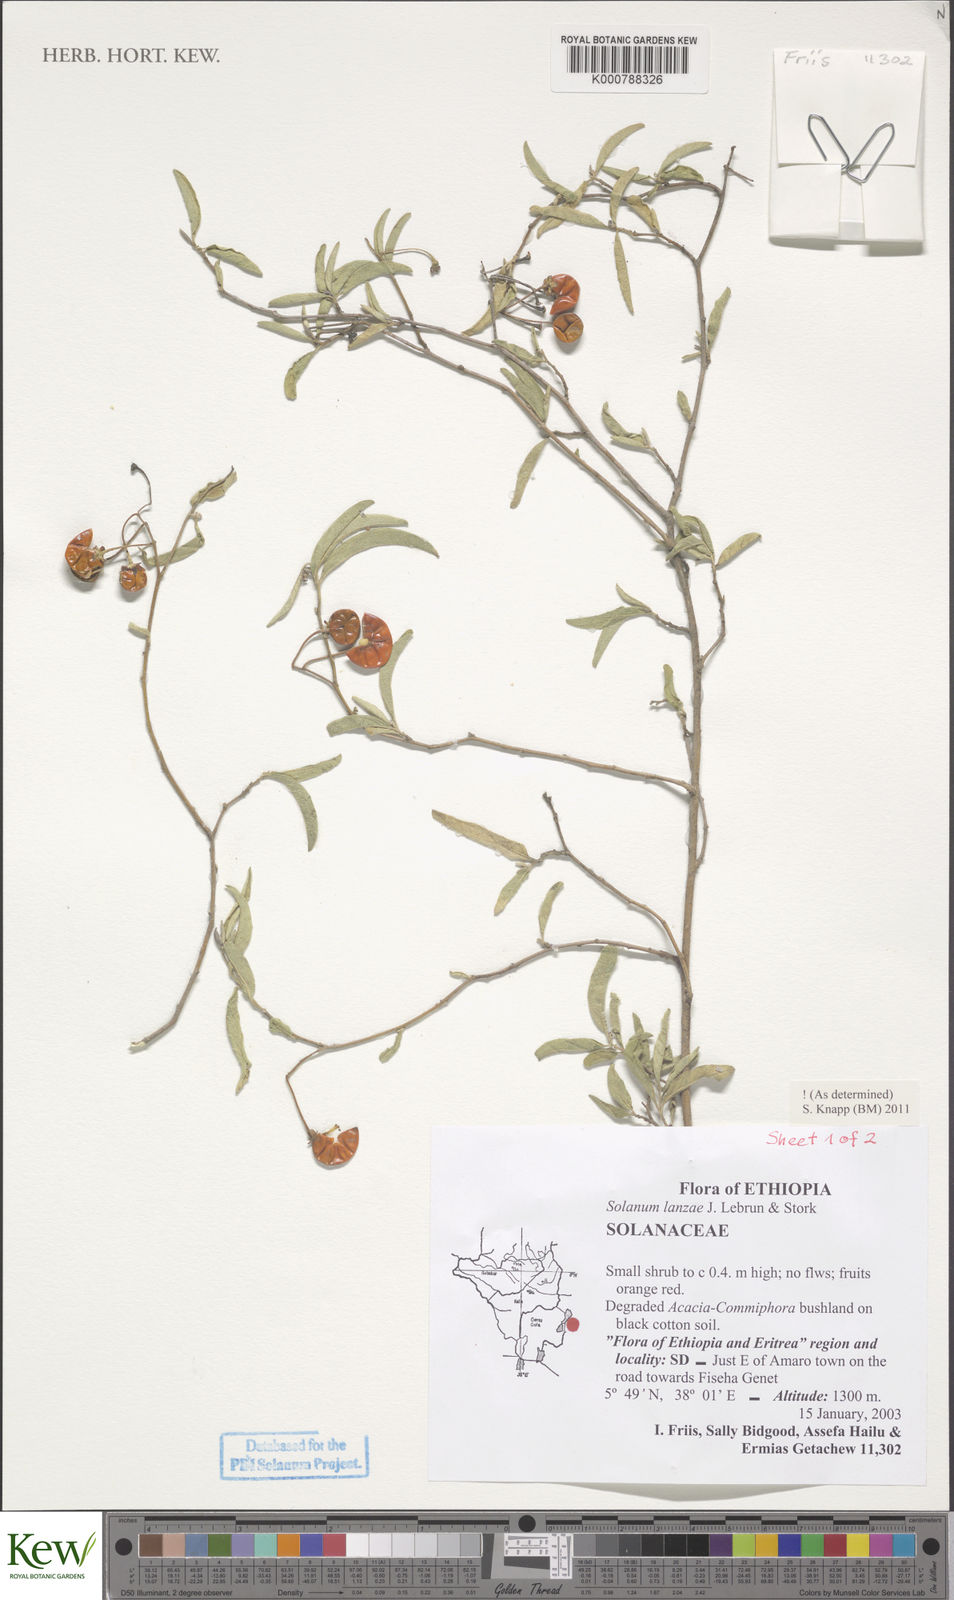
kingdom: Plantae
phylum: Tracheophyta
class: Magnoliopsida
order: Solanales
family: Solanaceae
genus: Solanum
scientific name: Solanum lanzae
